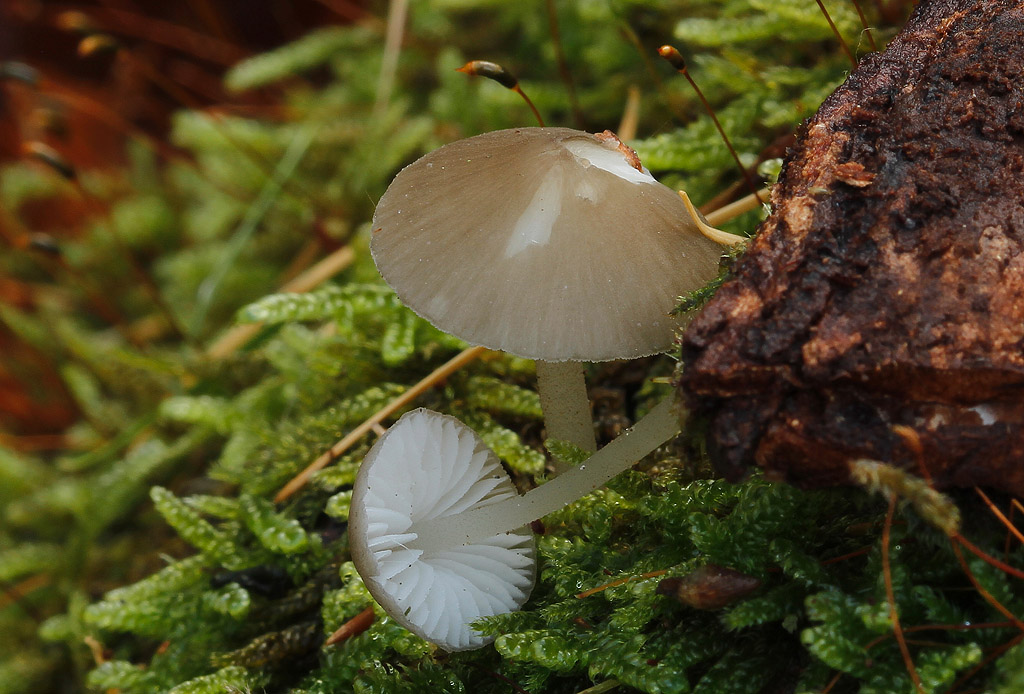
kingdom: Fungi
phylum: Basidiomycota
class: Agaricomycetes
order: Agaricales
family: Porotheleaceae
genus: Pseudohydropus
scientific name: Pseudohydropus floccipes
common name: mørkprikket fnugfod
